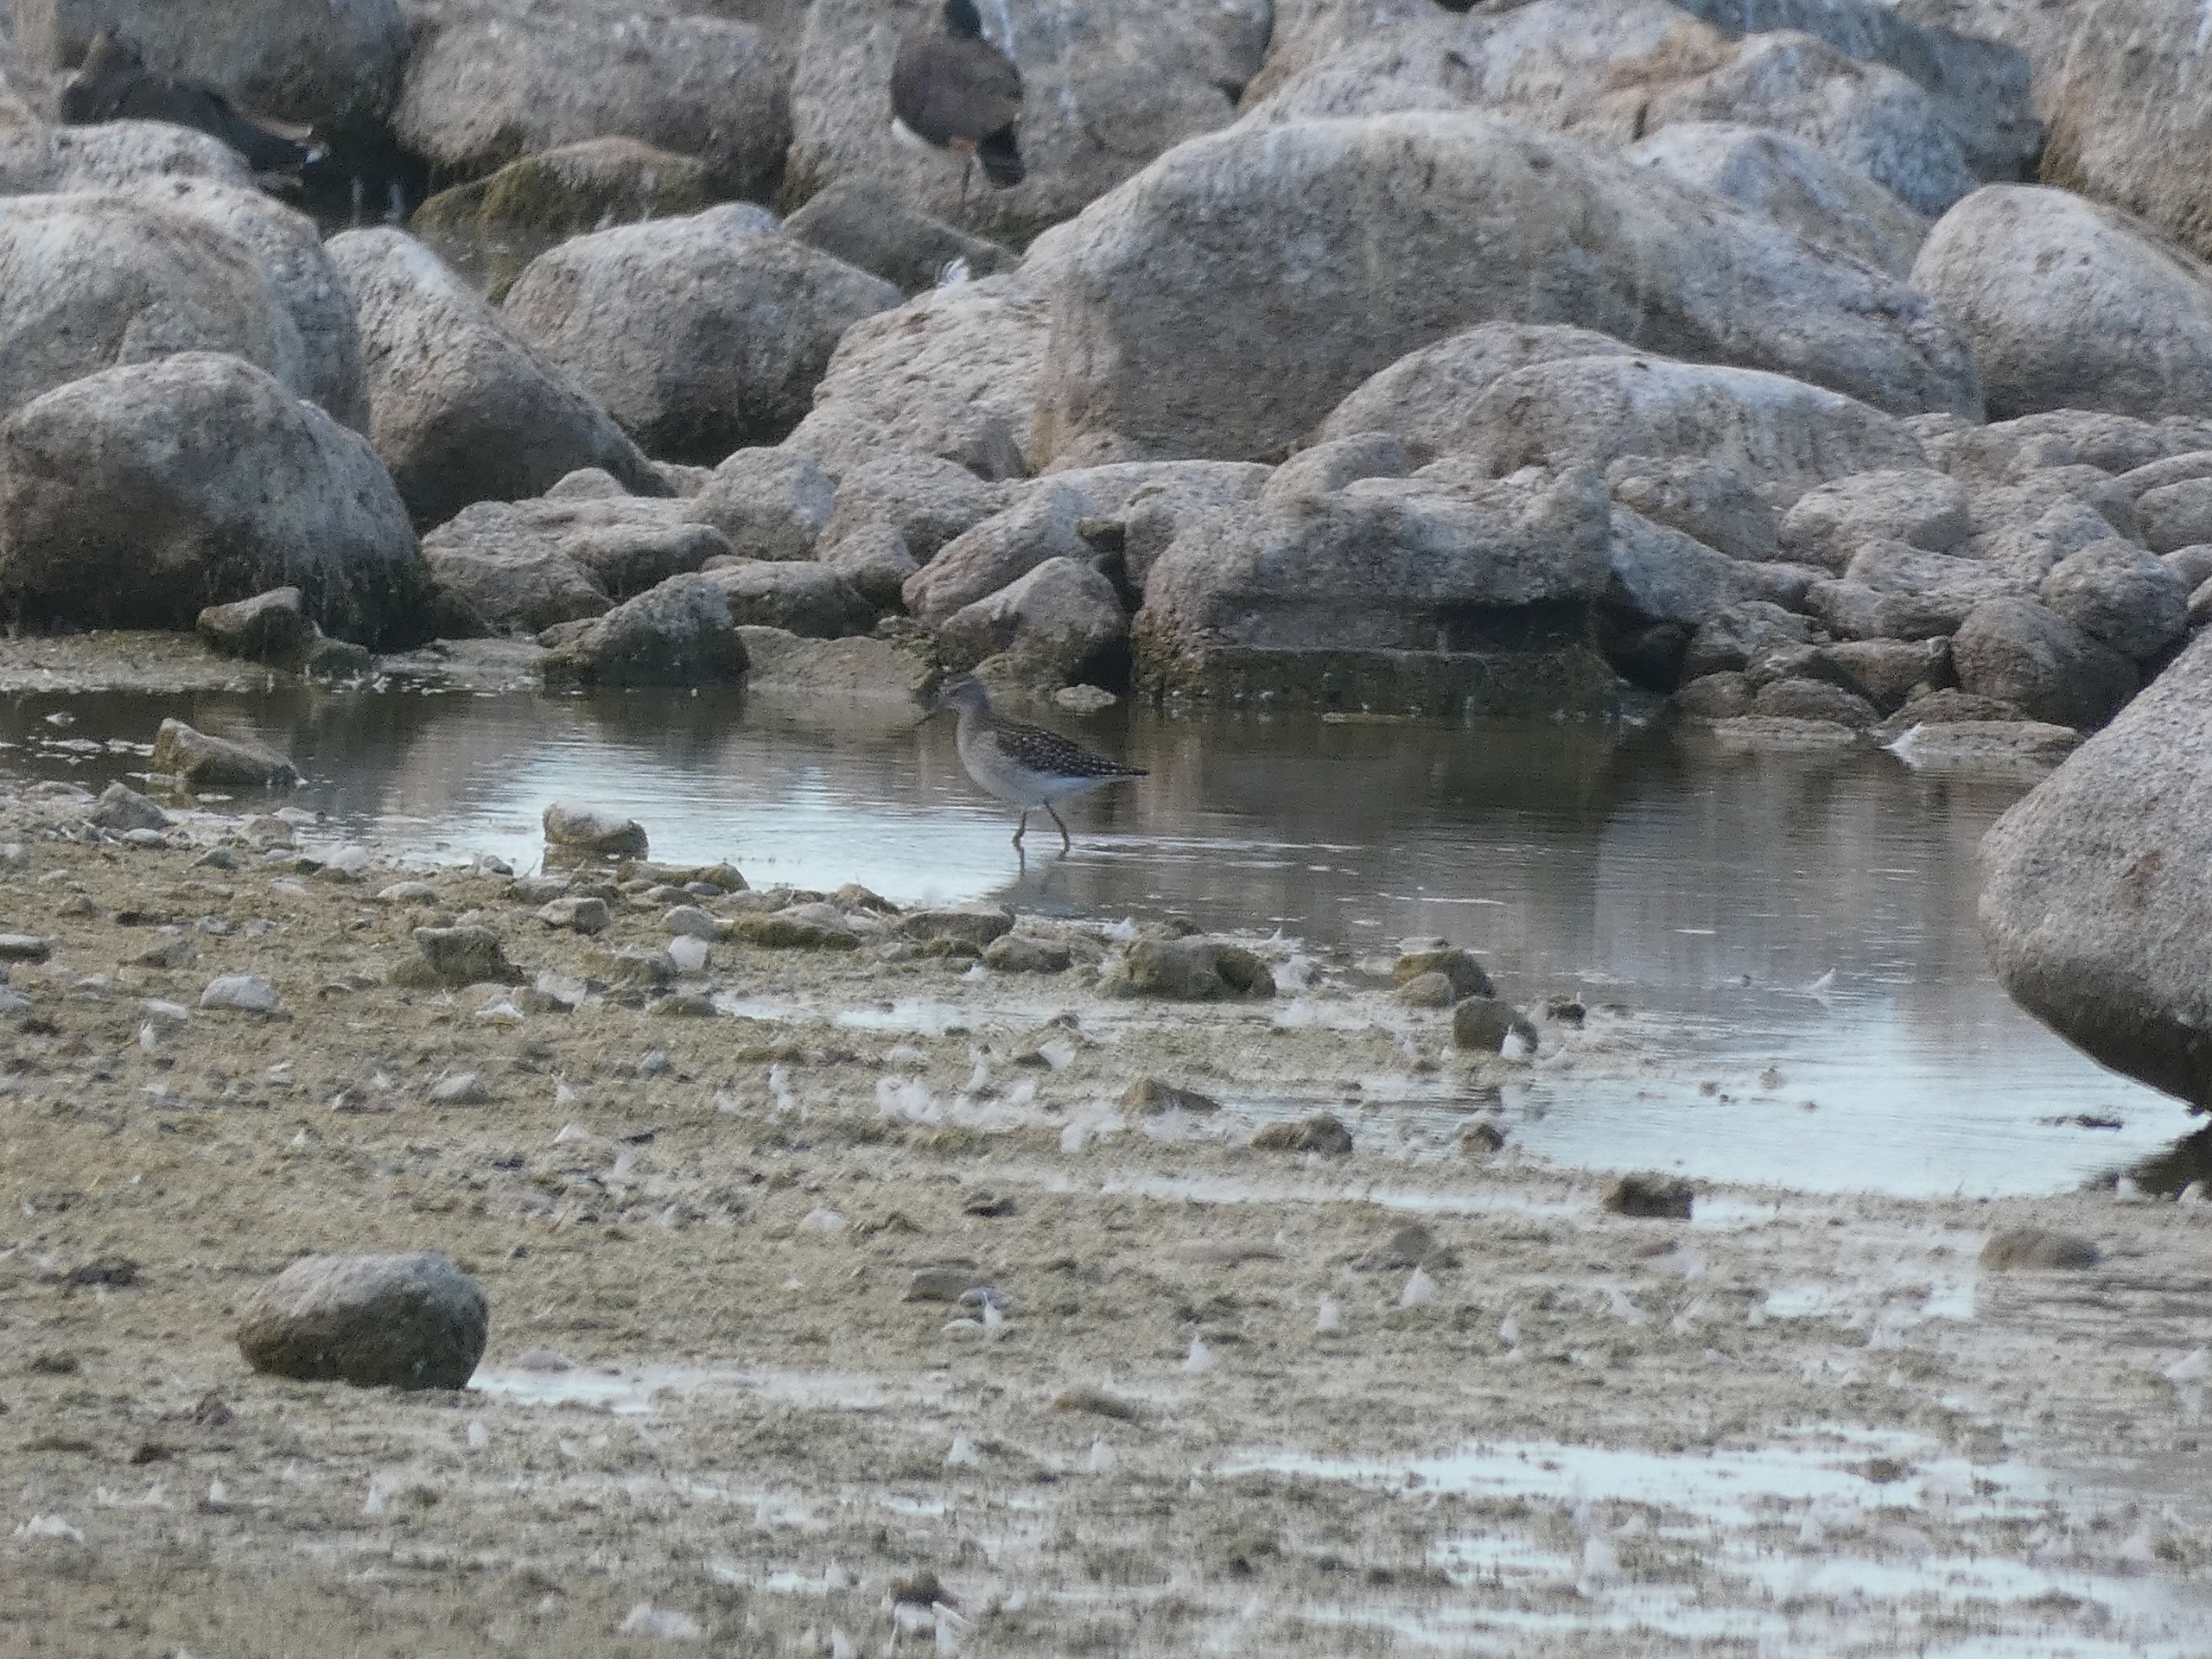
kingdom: Animalia
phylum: Chordata
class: Aves
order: Charadriiformes
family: Scolopacidae
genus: Tringa
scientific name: Tringa glareola
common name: Tinksmed
